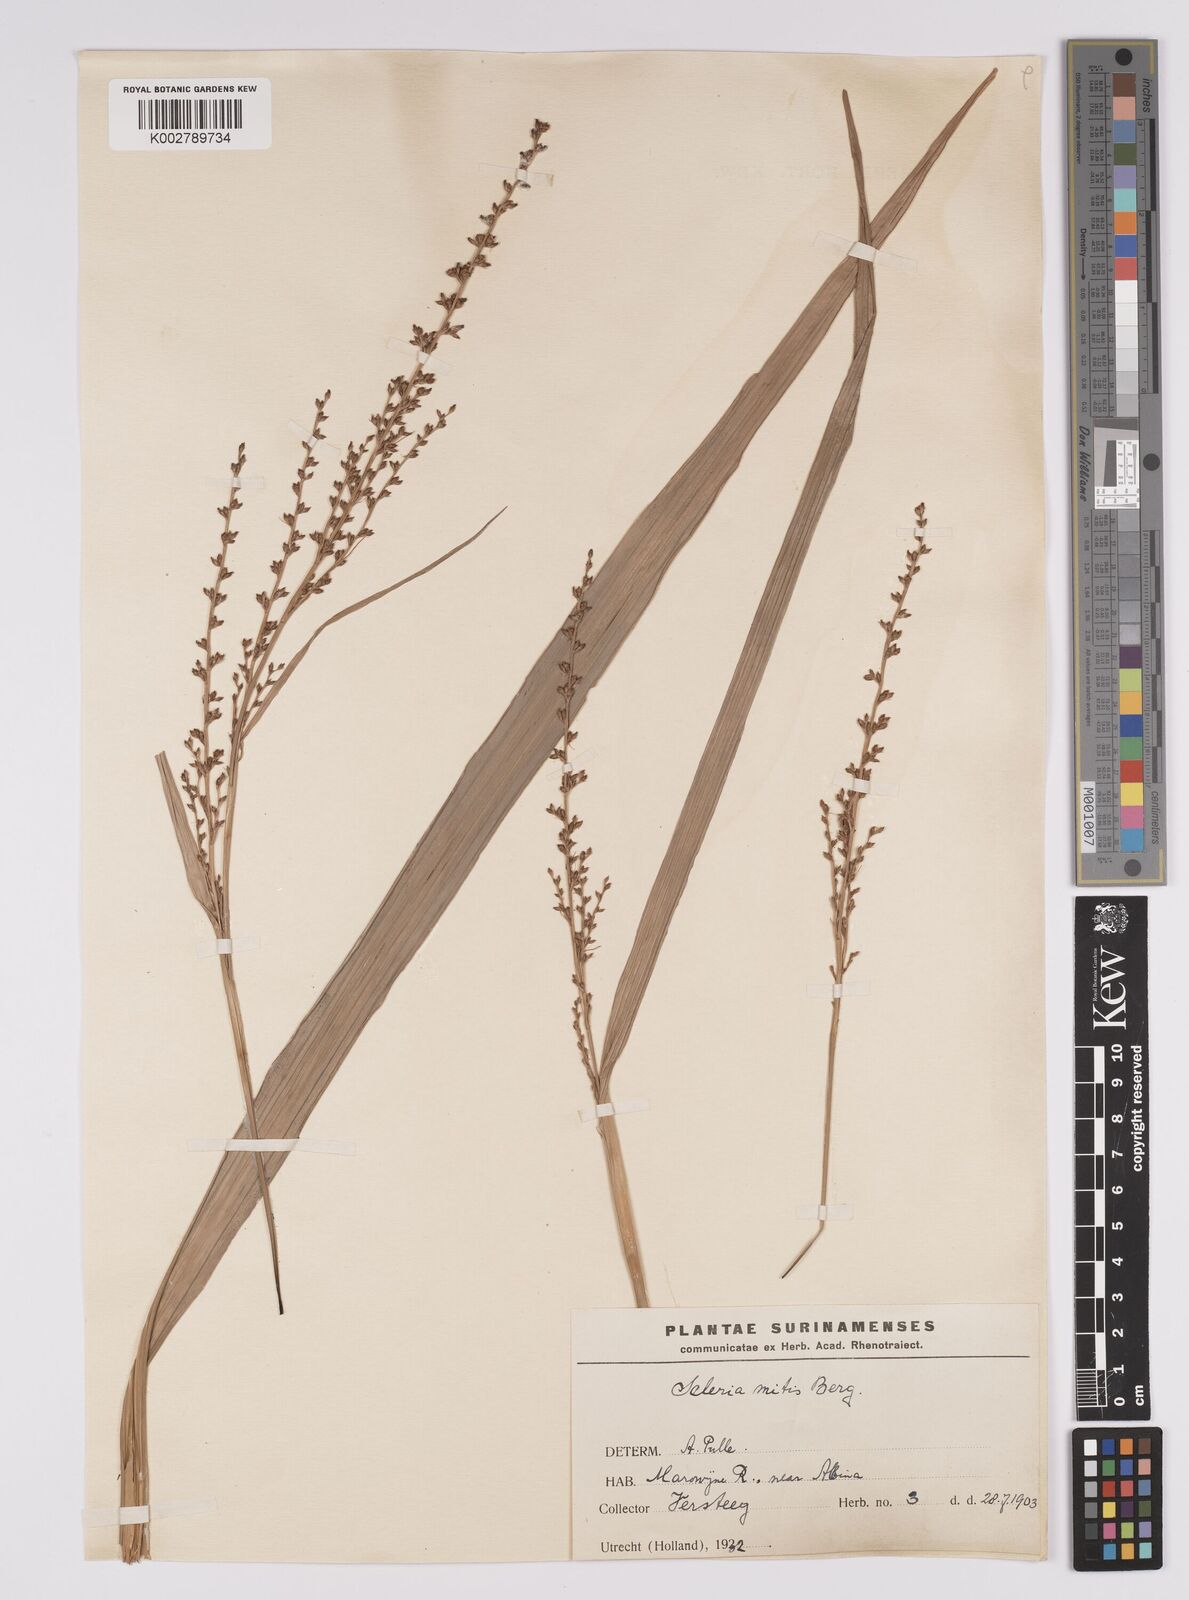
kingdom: Plantae
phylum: Tracheophyta
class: Liliopsida
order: Poales
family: Cyperaceae
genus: Scleria
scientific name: Scleria mitis
